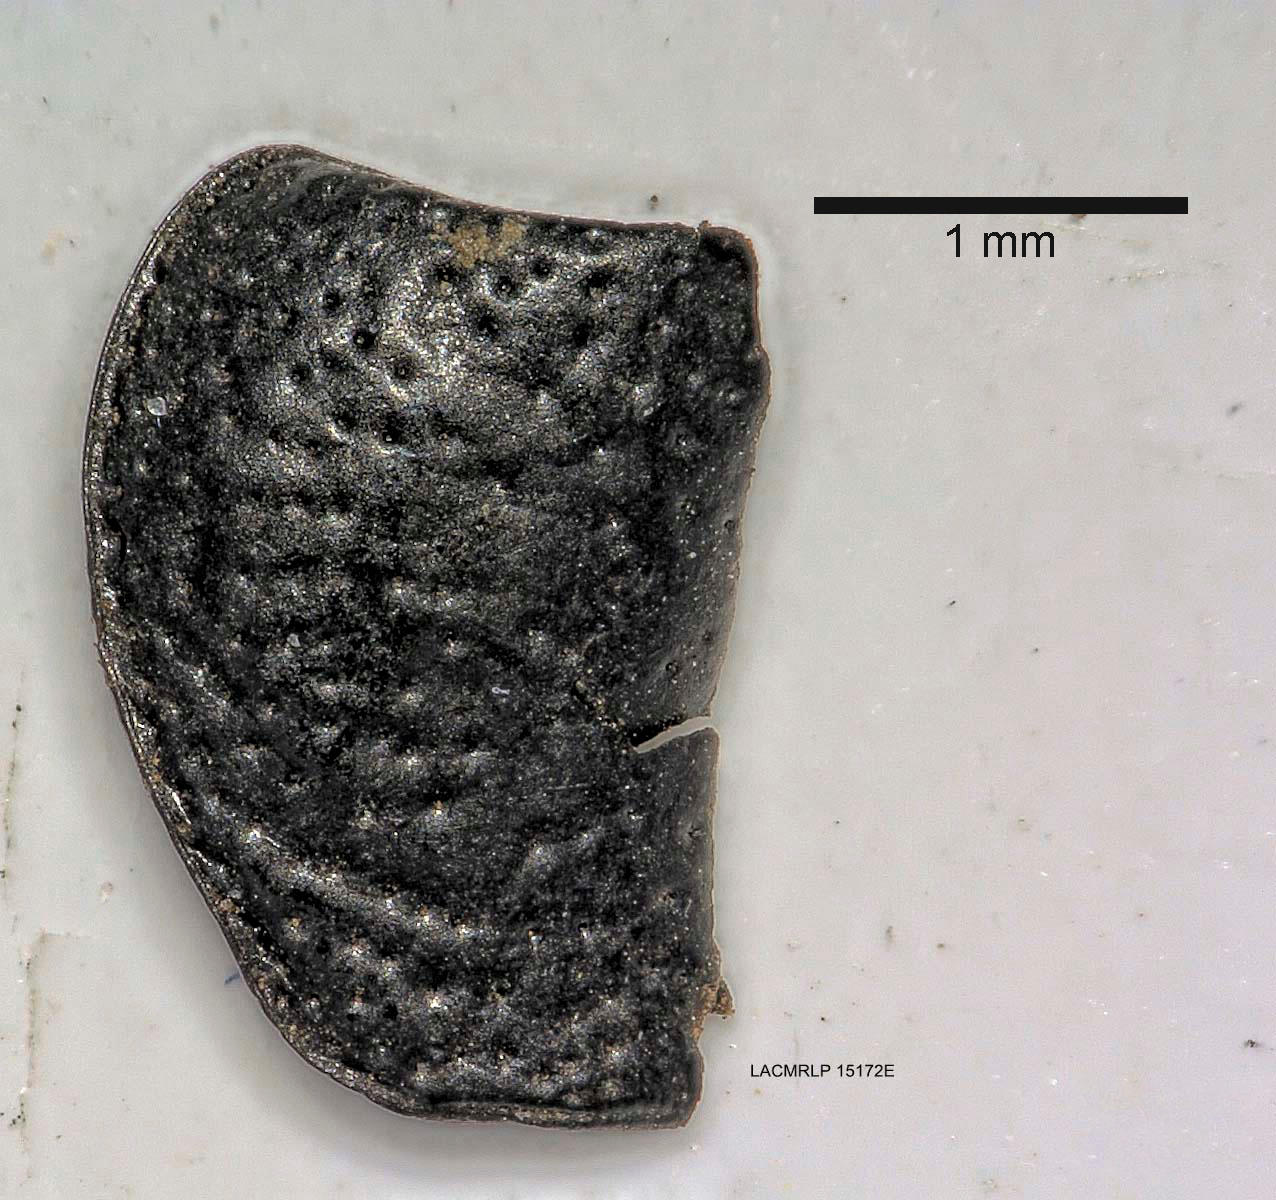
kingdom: Animalia
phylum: Arthropoda
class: Insecta
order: Coleoptera
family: Carabidae
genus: Dicheirus
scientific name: Dicheirus dilatatus
